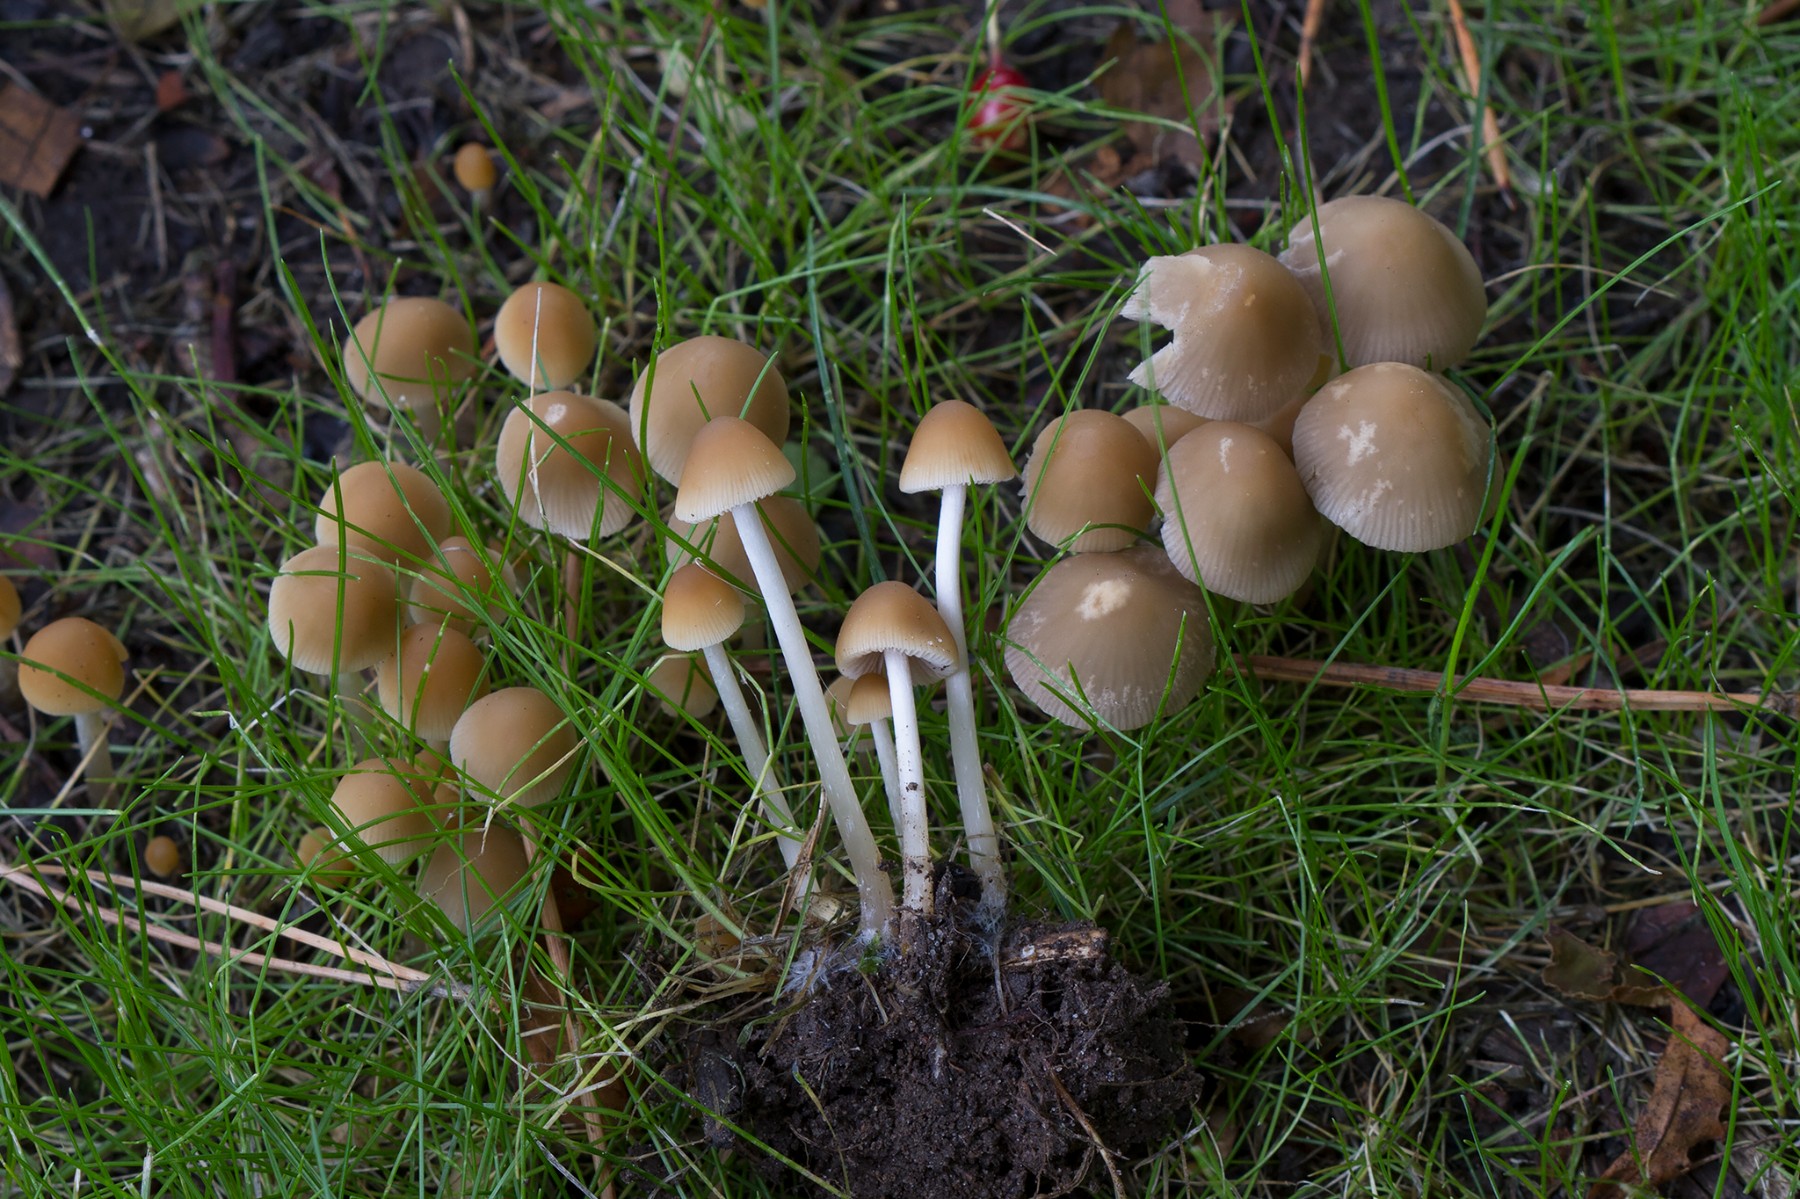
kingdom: Fungi
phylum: Basidiomycota
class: Agaricomycetes
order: Agaricales
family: Psathyrellaceae
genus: Psathyrella
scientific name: Psathyrella
